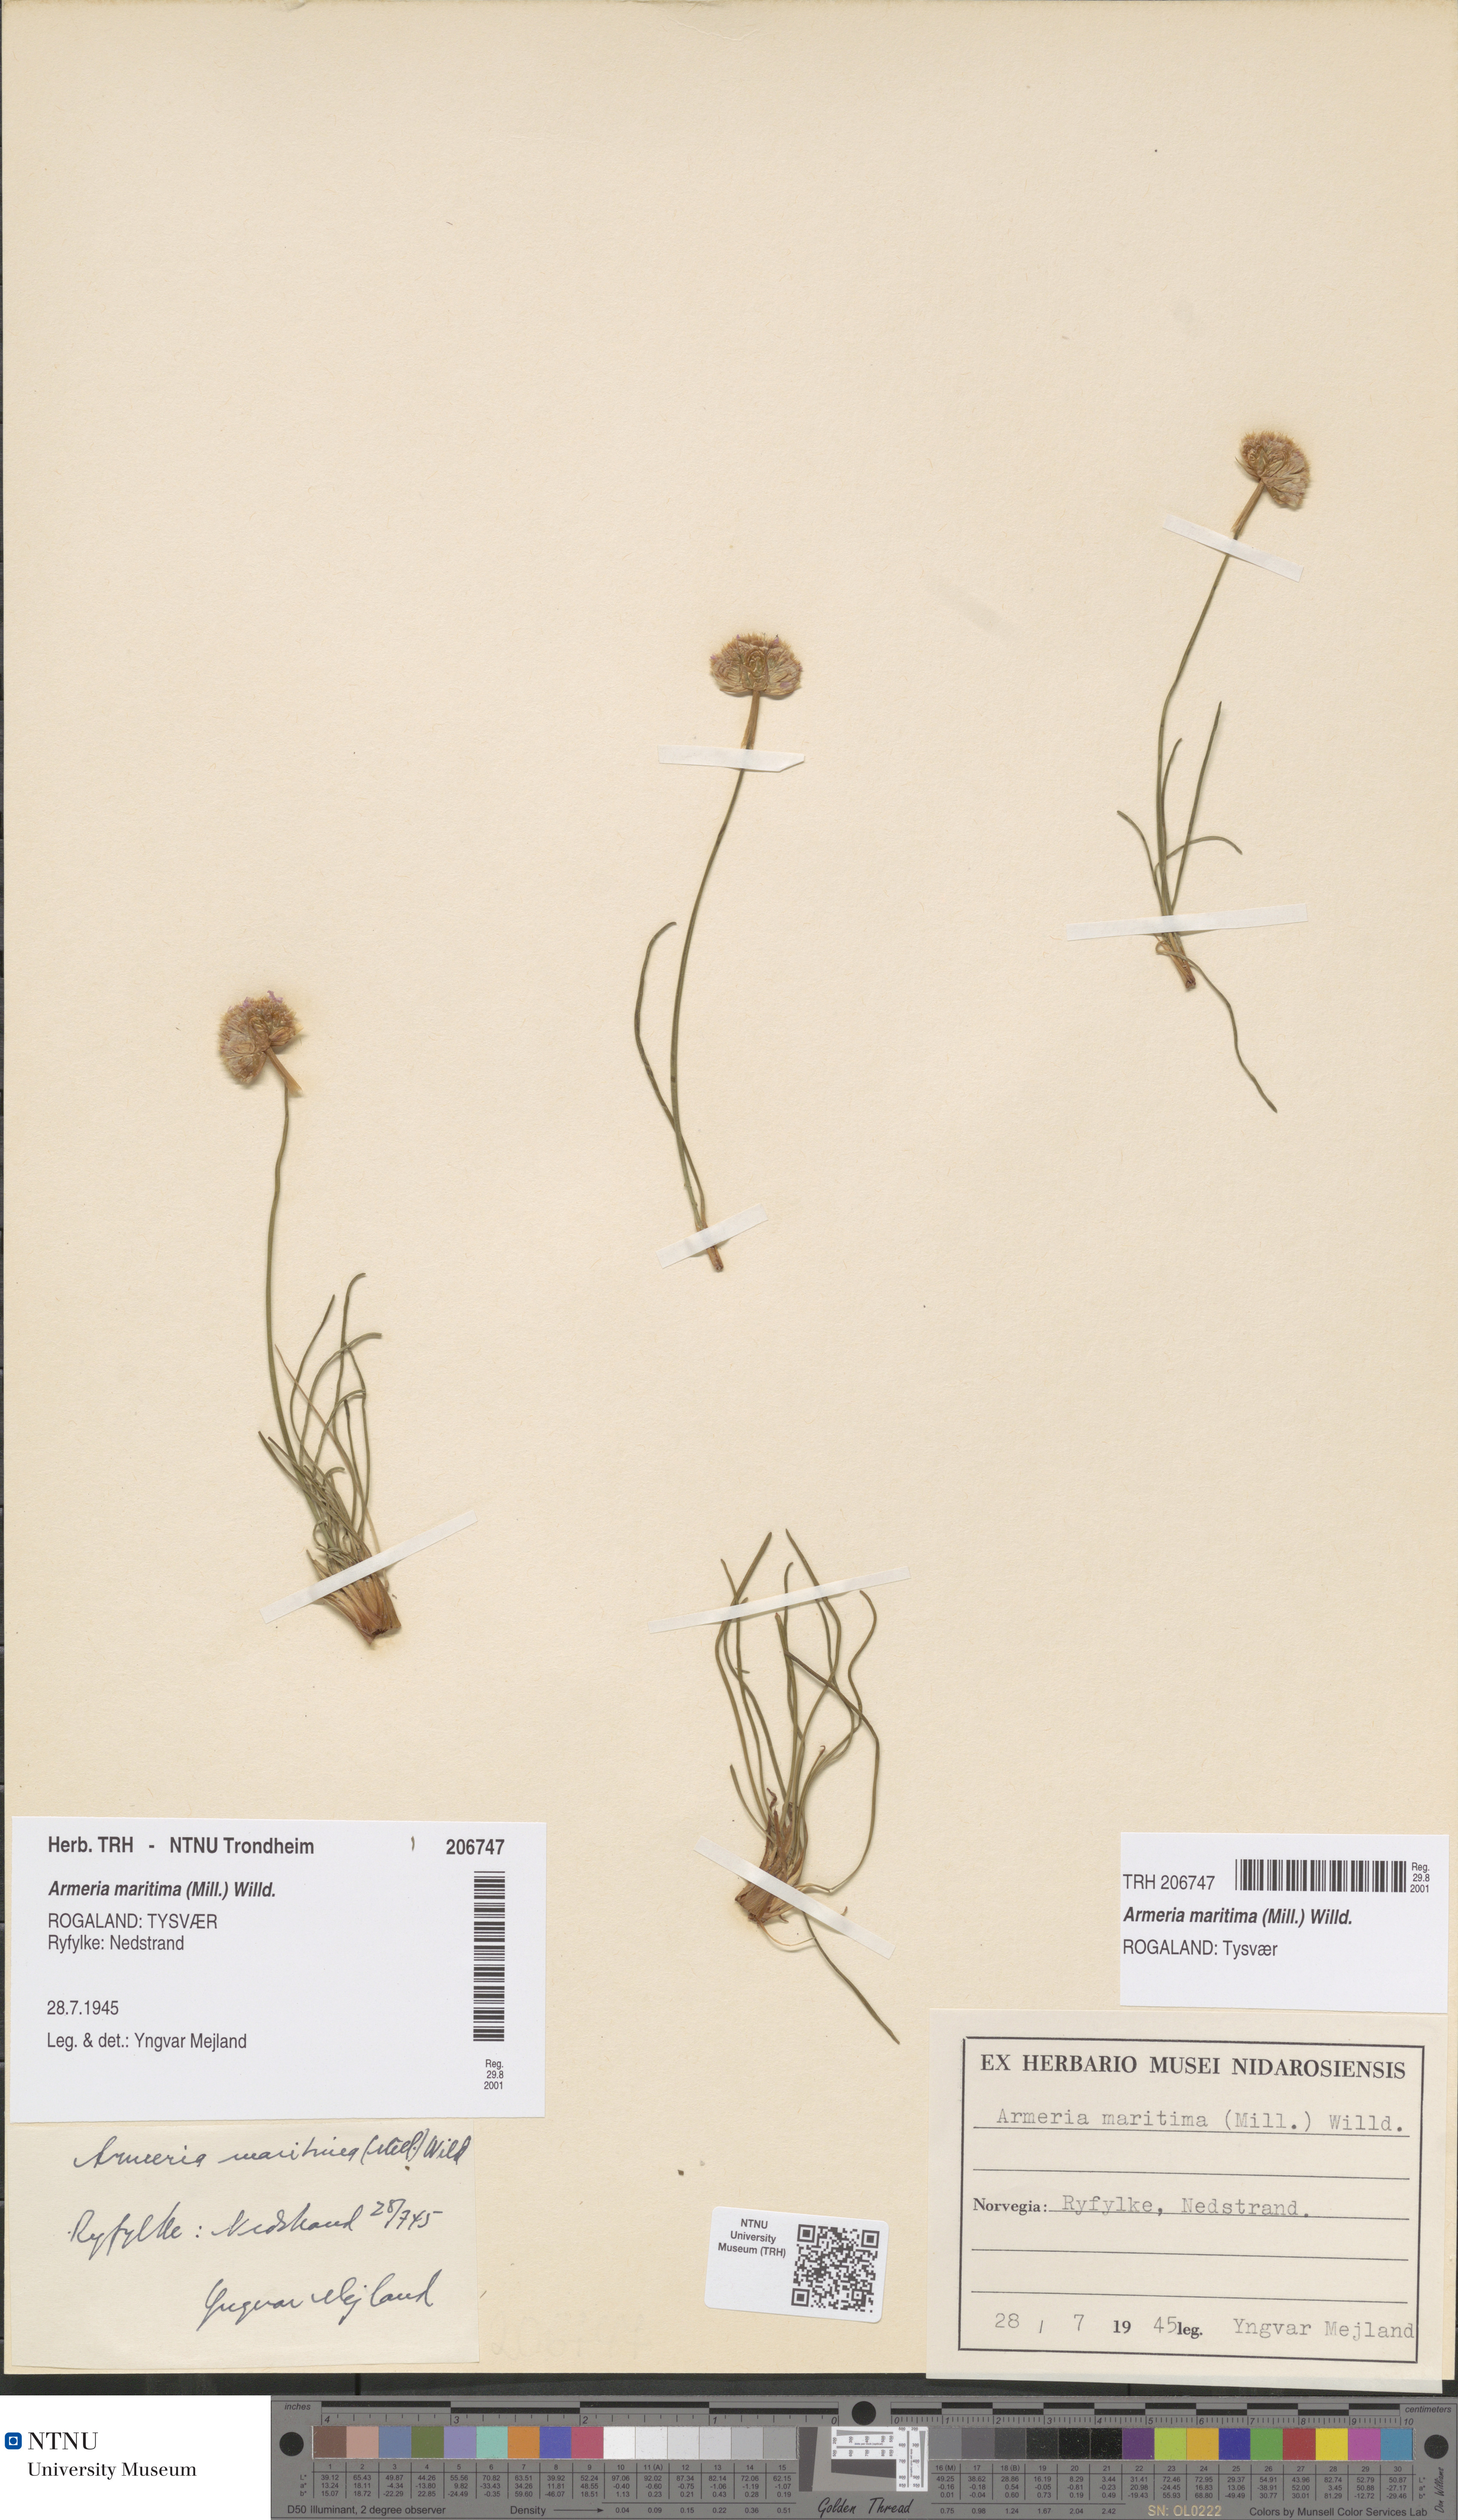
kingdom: Plantae
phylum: Tracheophyta
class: Magnoliopsida
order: Caryophyllales
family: Plumbaginaceae
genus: Armeria
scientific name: Armeria maritima
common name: Thrift
